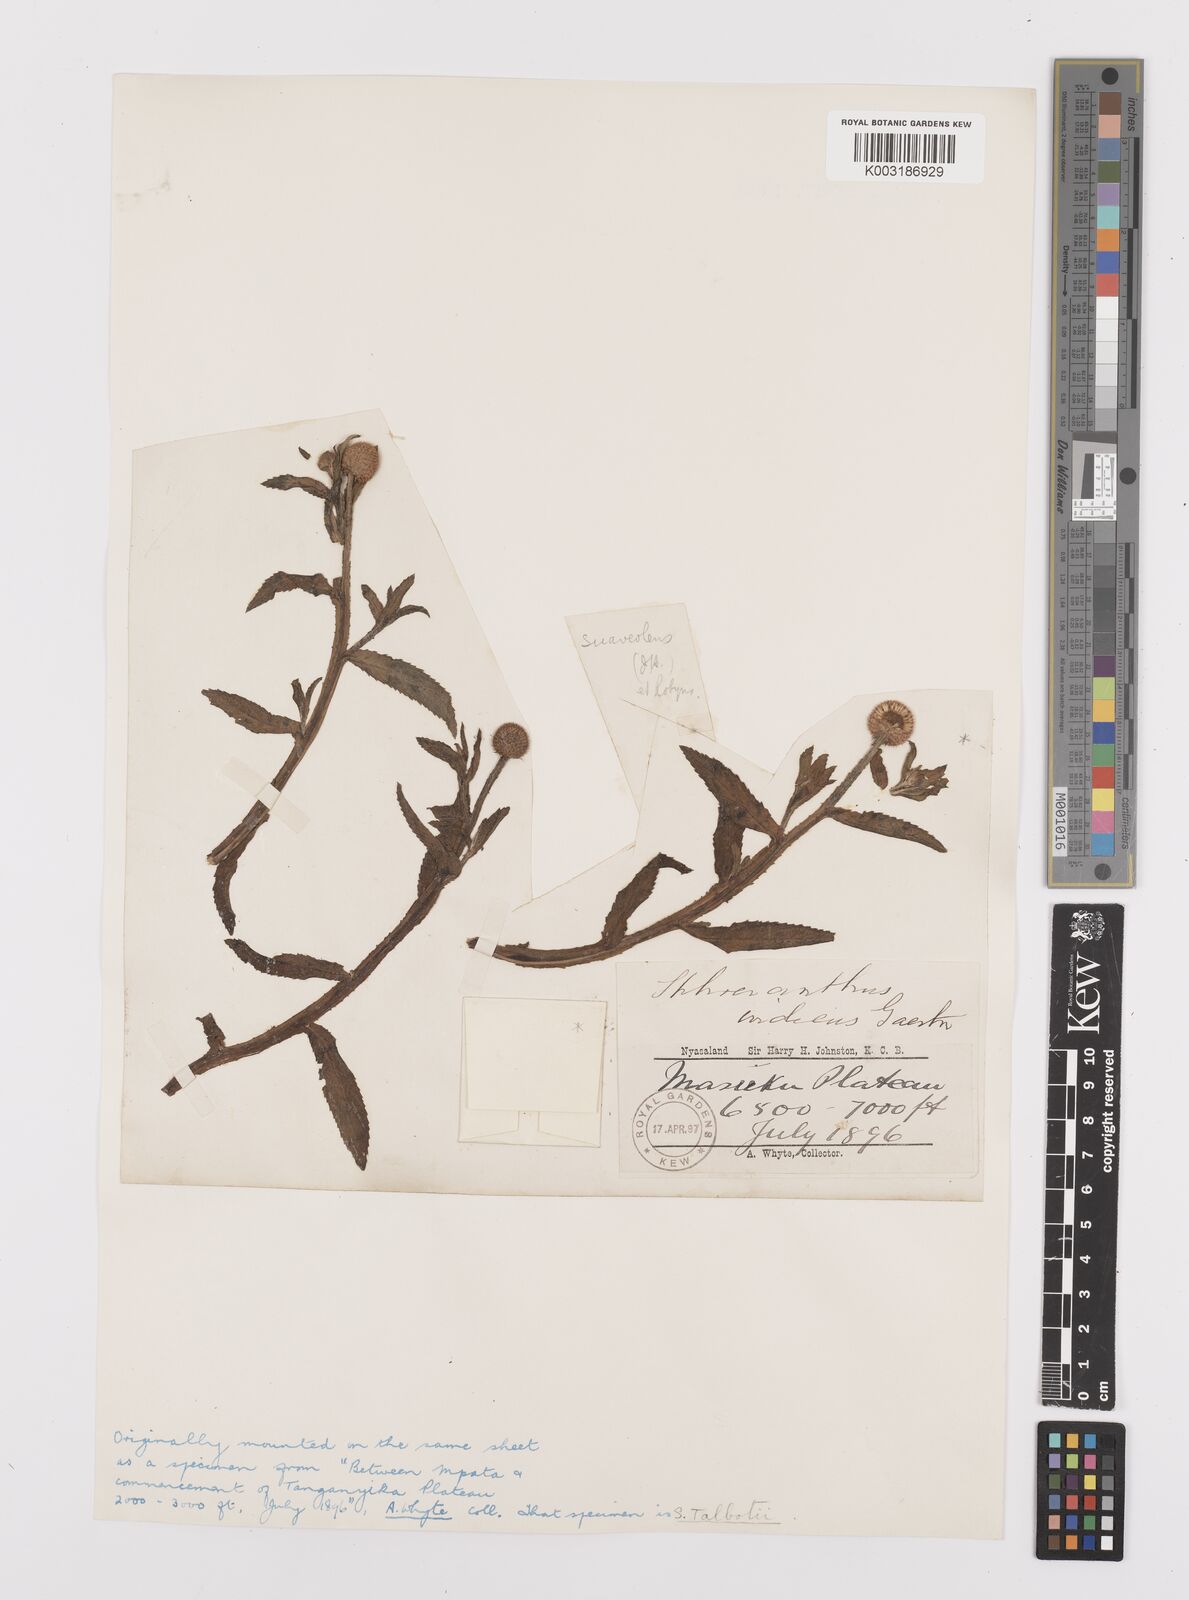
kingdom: Plantae
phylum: Tracheophyta
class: Magnoliopsida
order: Asterales
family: Asteraceae
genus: Sphaeranthus
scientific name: Sphaeranthus suaveolens
